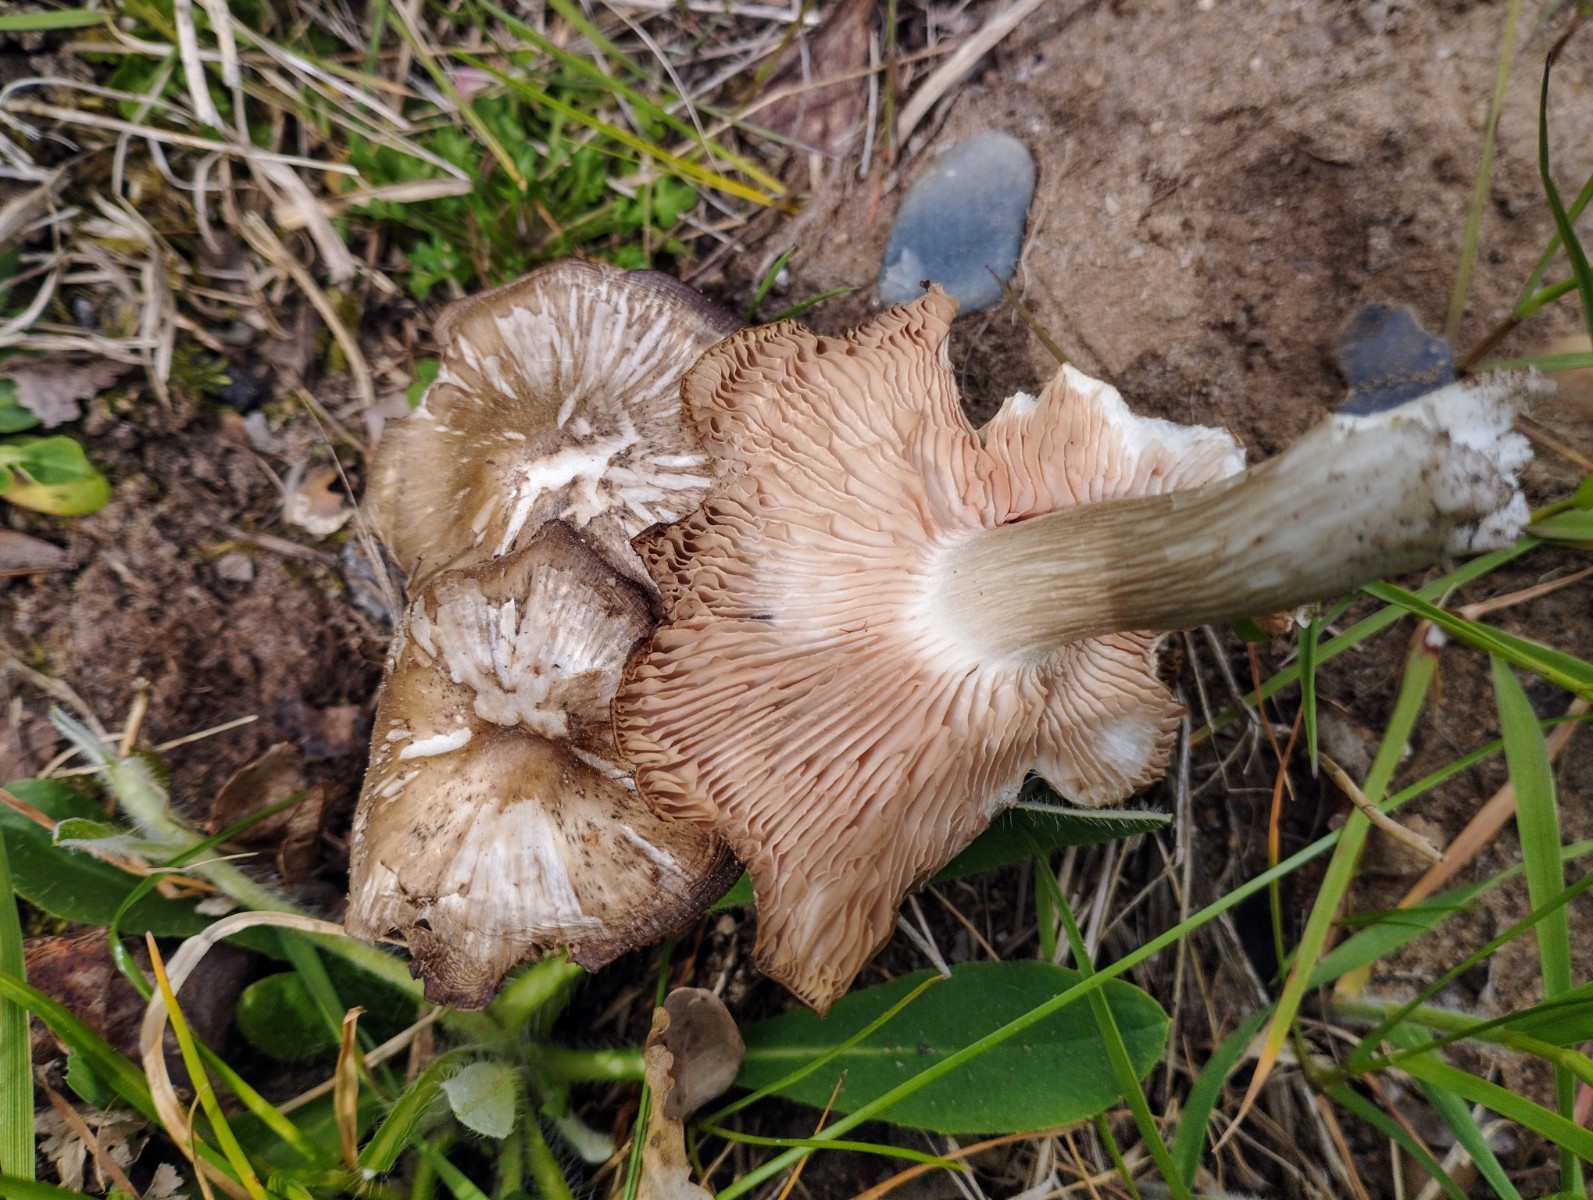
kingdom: Fungi
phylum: Basidiomycota
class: Agaricomycetes
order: Agaricales
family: Entolomataceae
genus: Entoloma
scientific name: Entoloma clypeatum
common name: flammet rødblad
